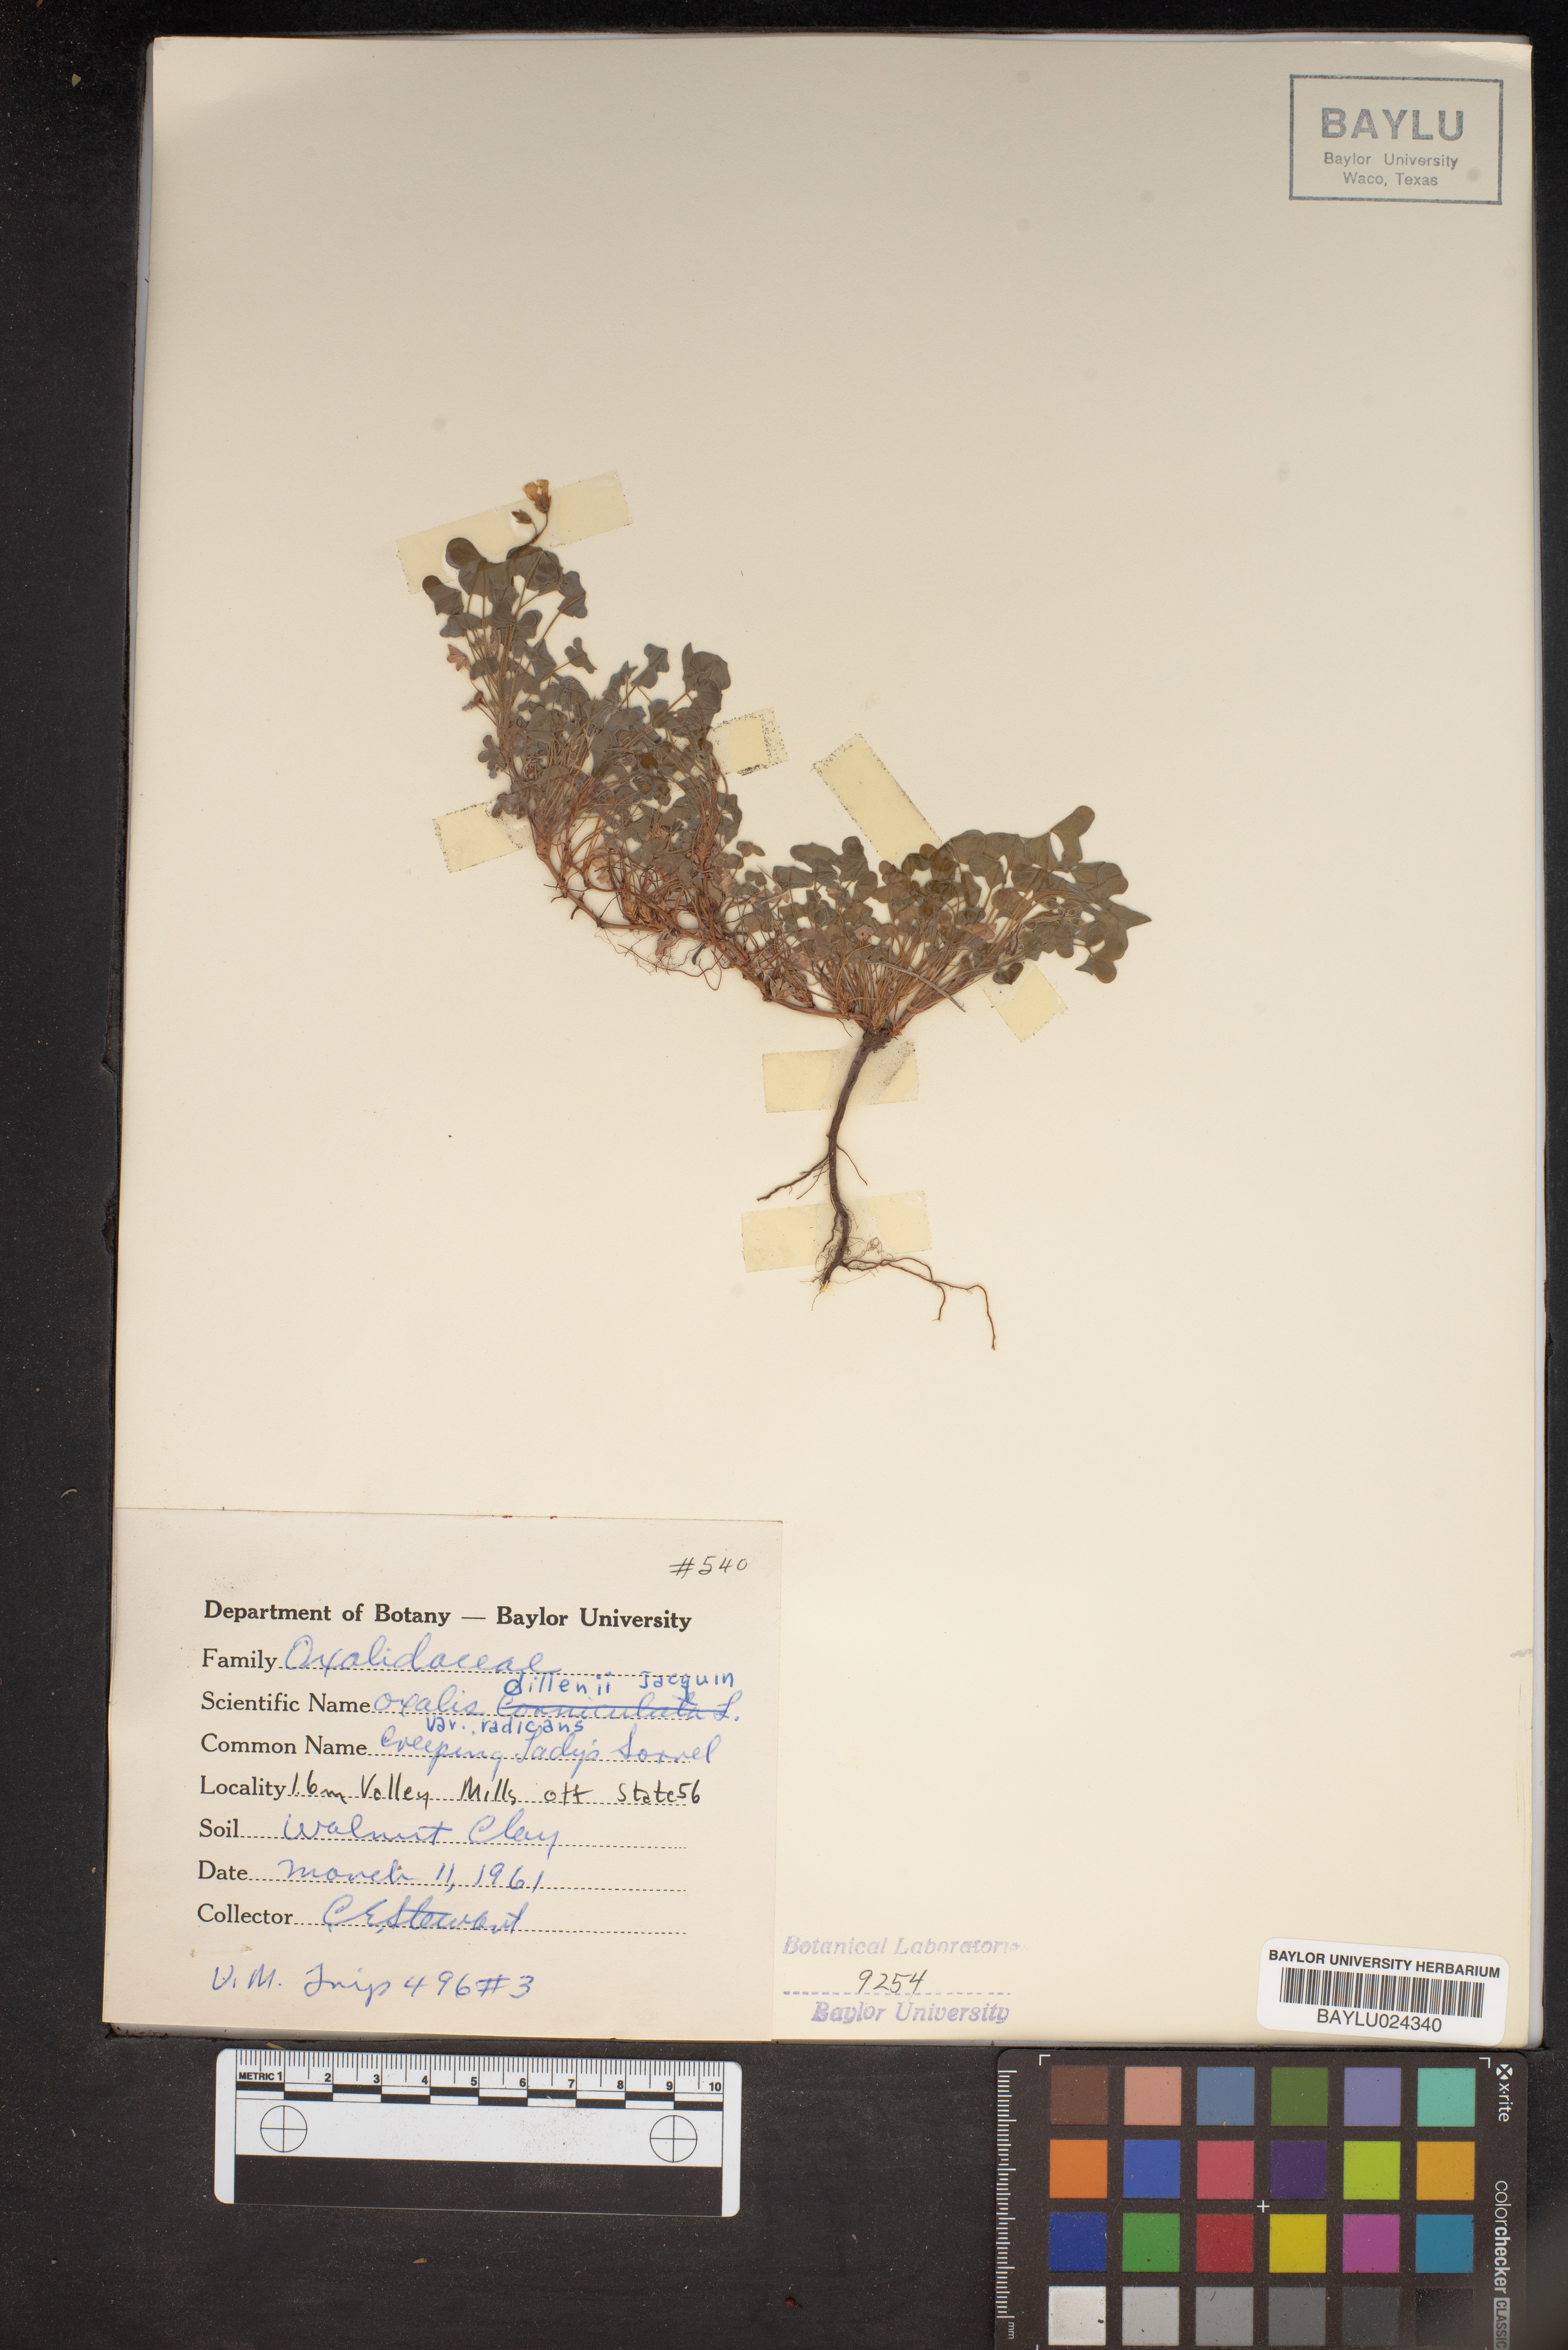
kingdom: Plantae
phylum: Tracheophyta
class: Magnoliopsida
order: Oxalidales
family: Oxalidaceae
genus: Oxalis
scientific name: Oxalis dillenii
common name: Sussex yellow-sorrel
